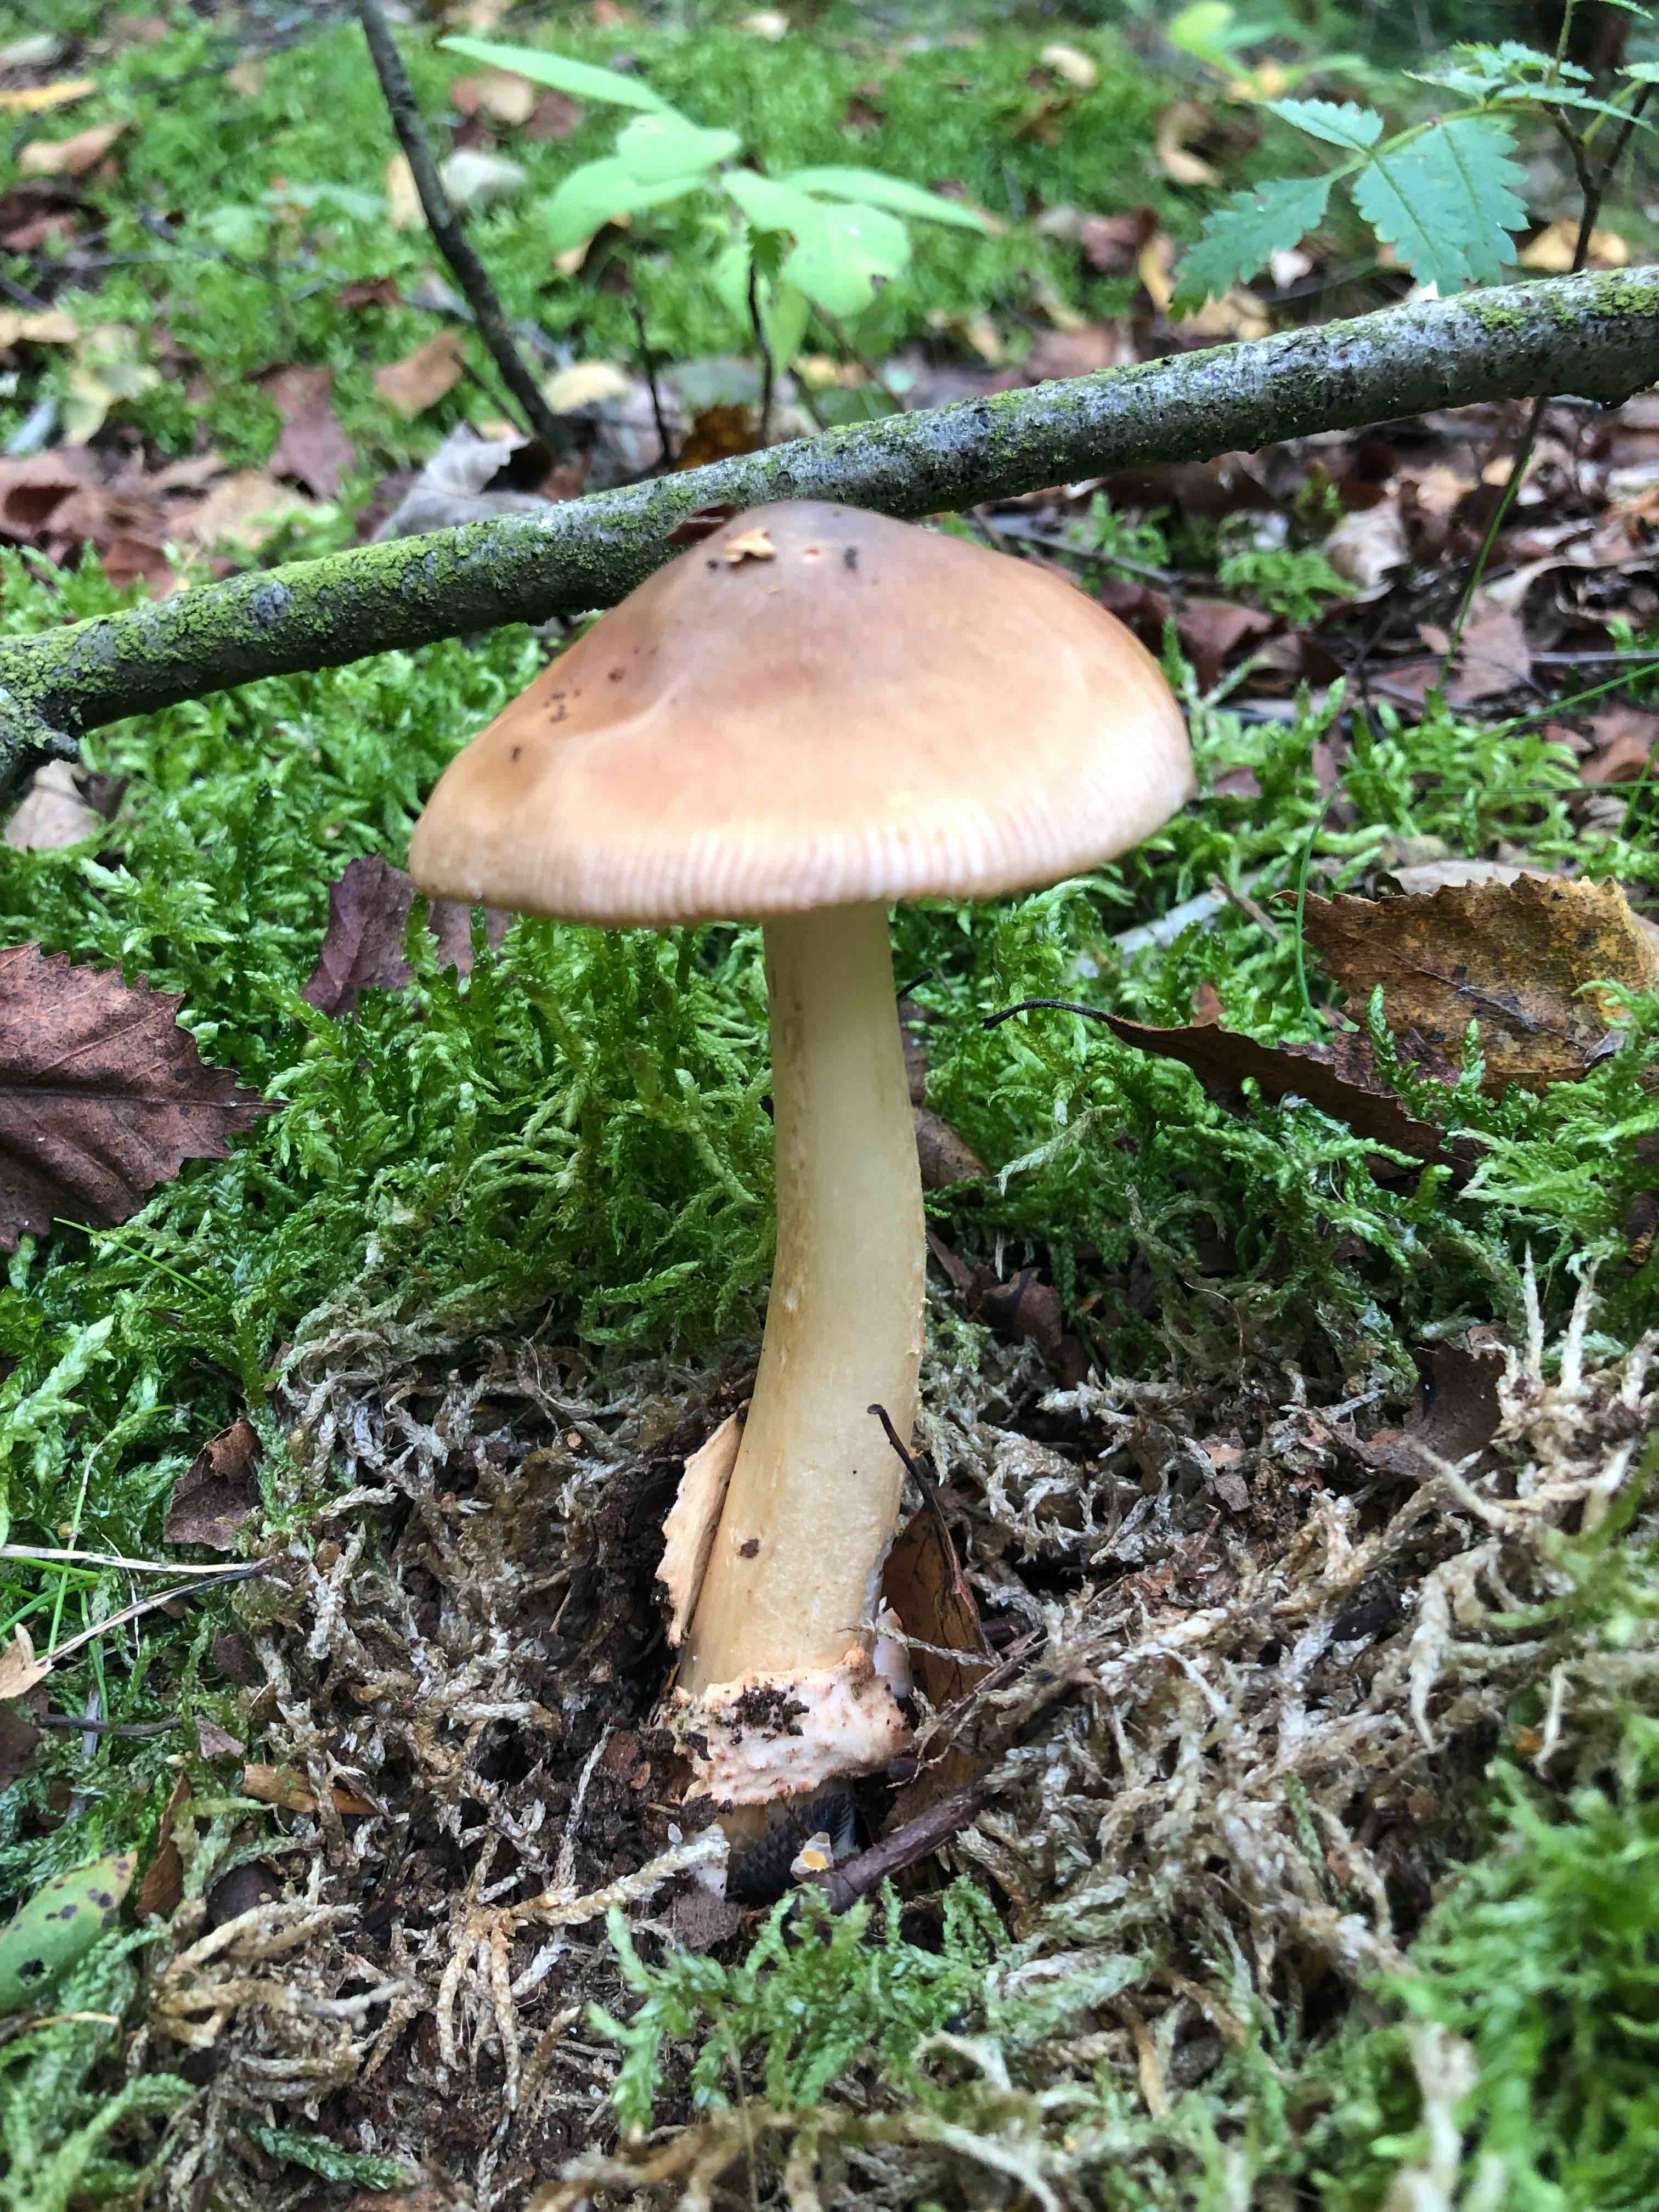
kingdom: Fungi
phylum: Basidiomycota
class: Agaricomycetes
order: Agaricales
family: Amanitaceae
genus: Amanita
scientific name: Amanita fulva
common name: brun kam-fluesvamp
